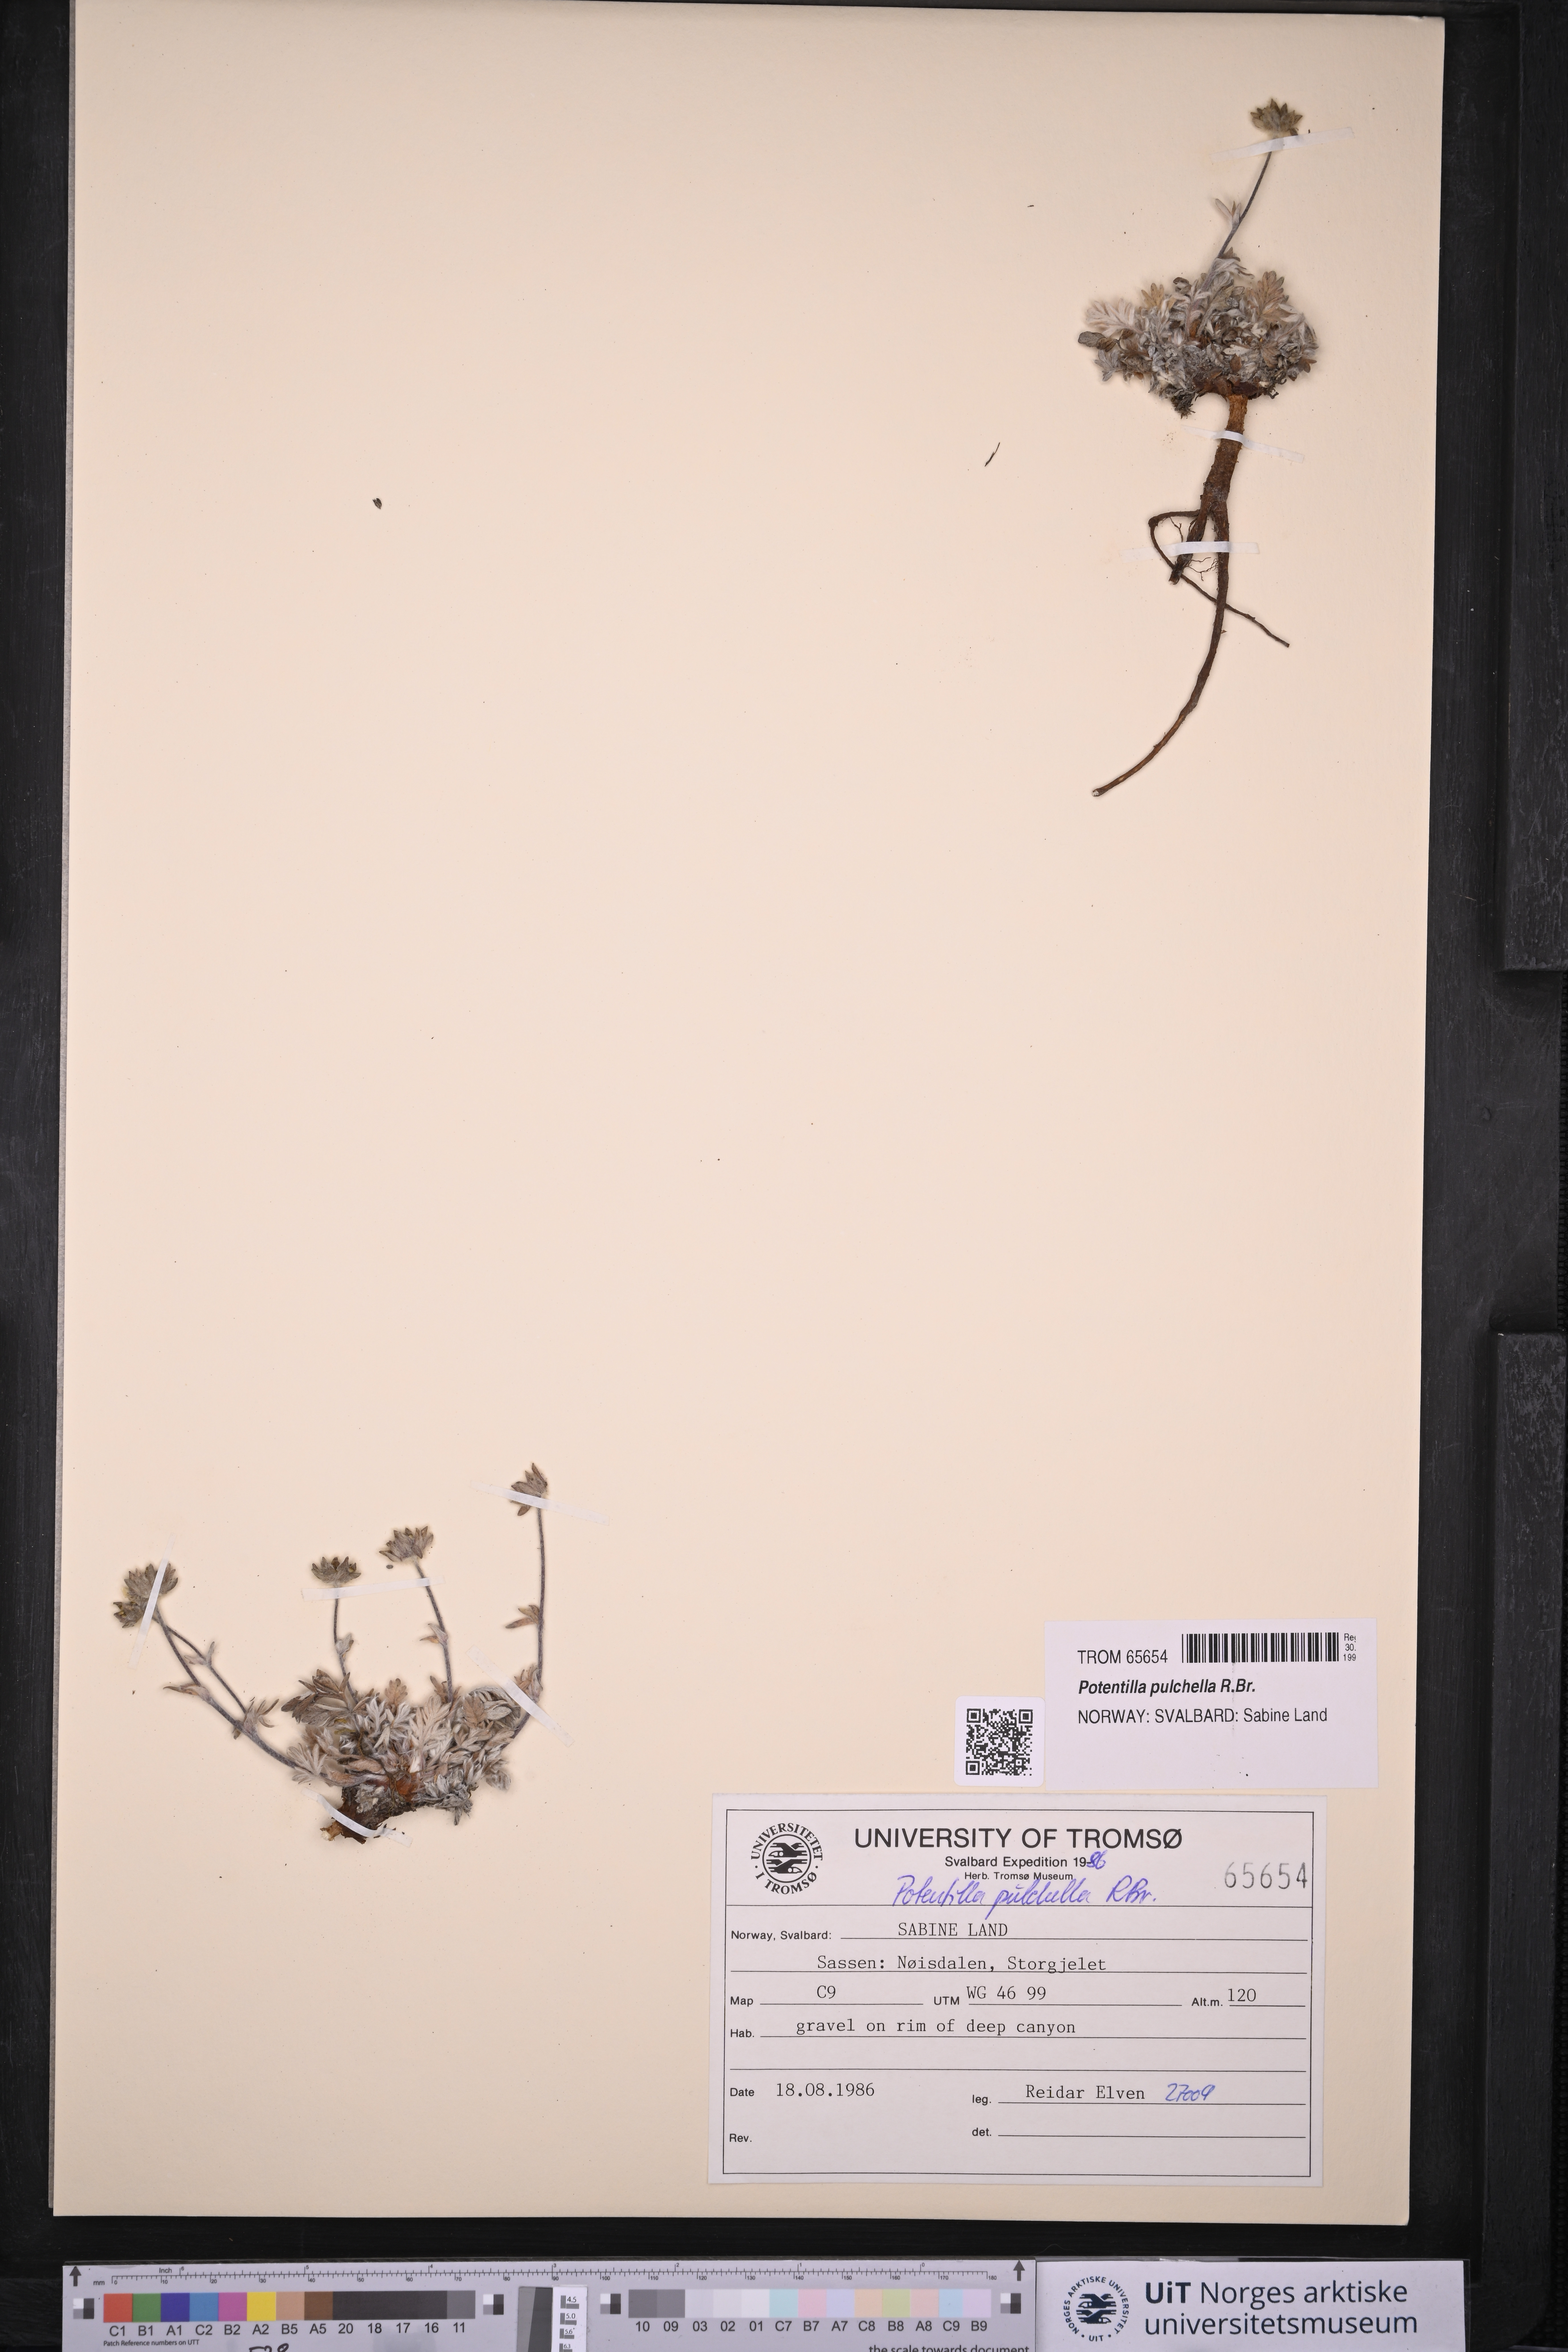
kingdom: Plantae
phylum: Tracheophyta
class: Magnoliopsida
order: Rosales
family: Rosaceae
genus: Potentilla
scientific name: Potentilla pulchella
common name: Pretty cinquefoil
